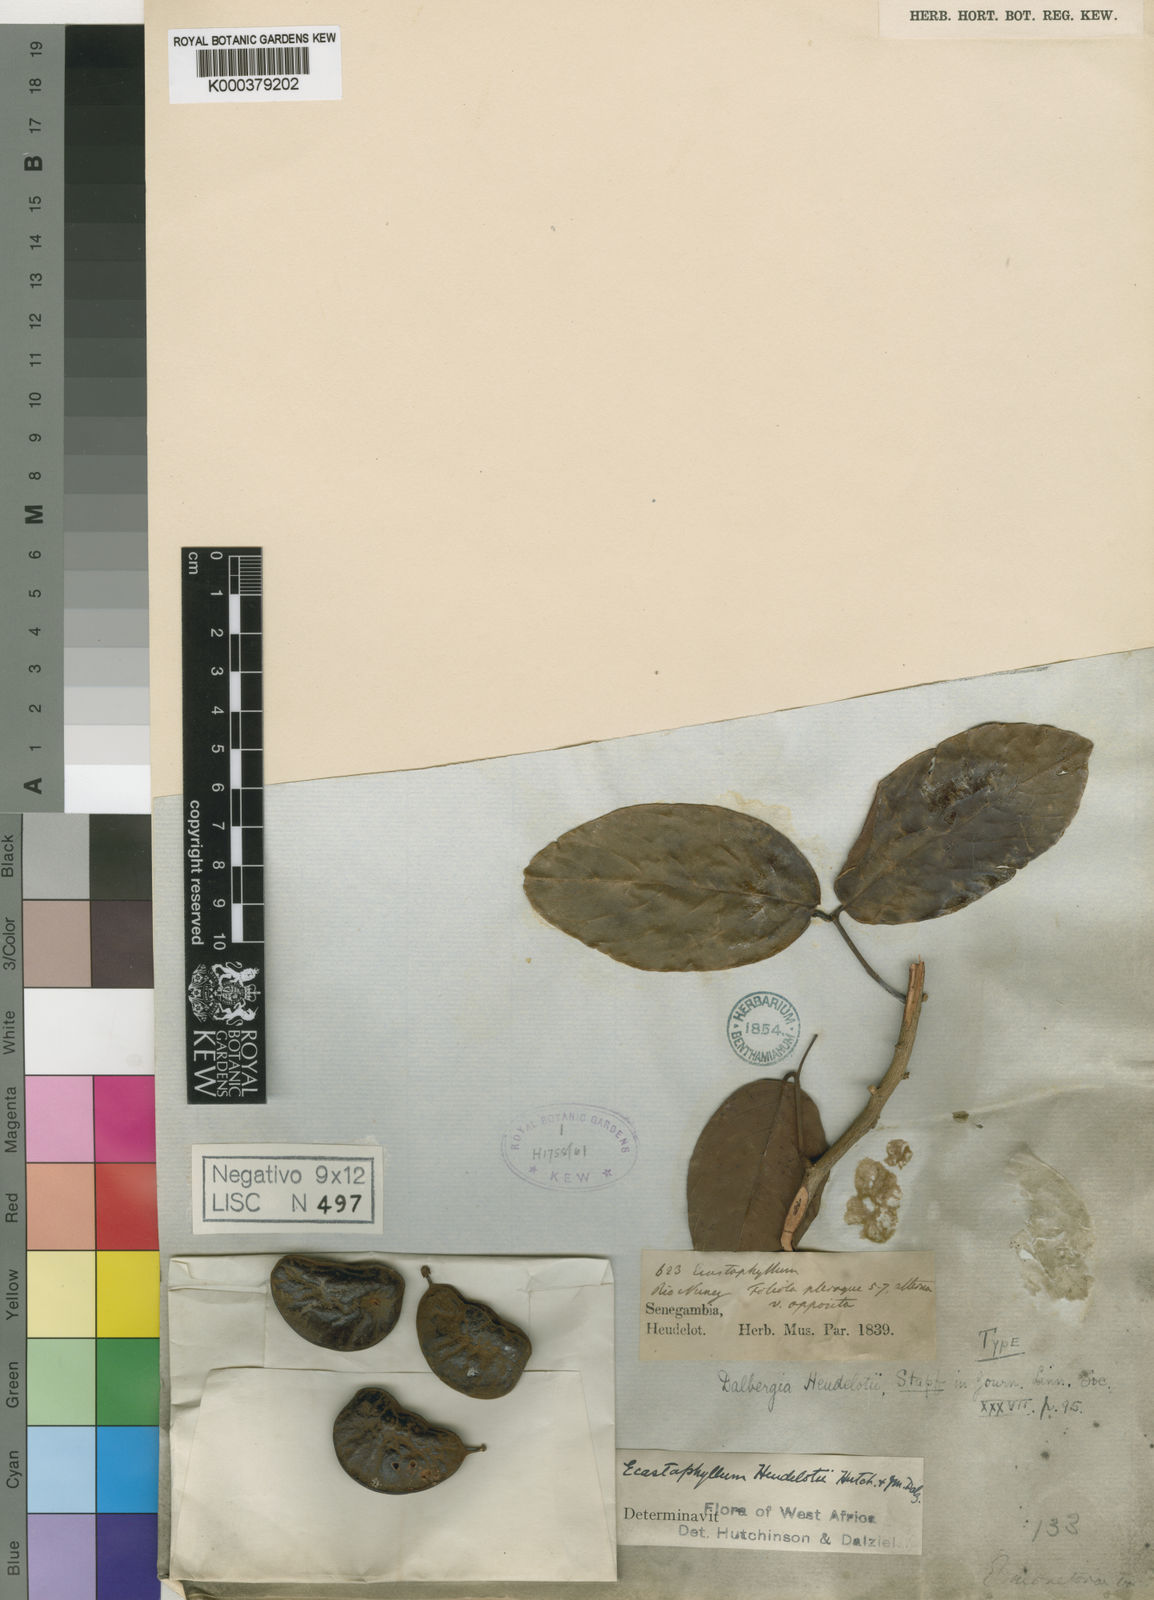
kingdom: Plantae
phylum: Tracheophyta
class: Magnoliopsida
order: Fabales
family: Fabaceae
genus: Dalbergia
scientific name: Dalbergia heudelotii
